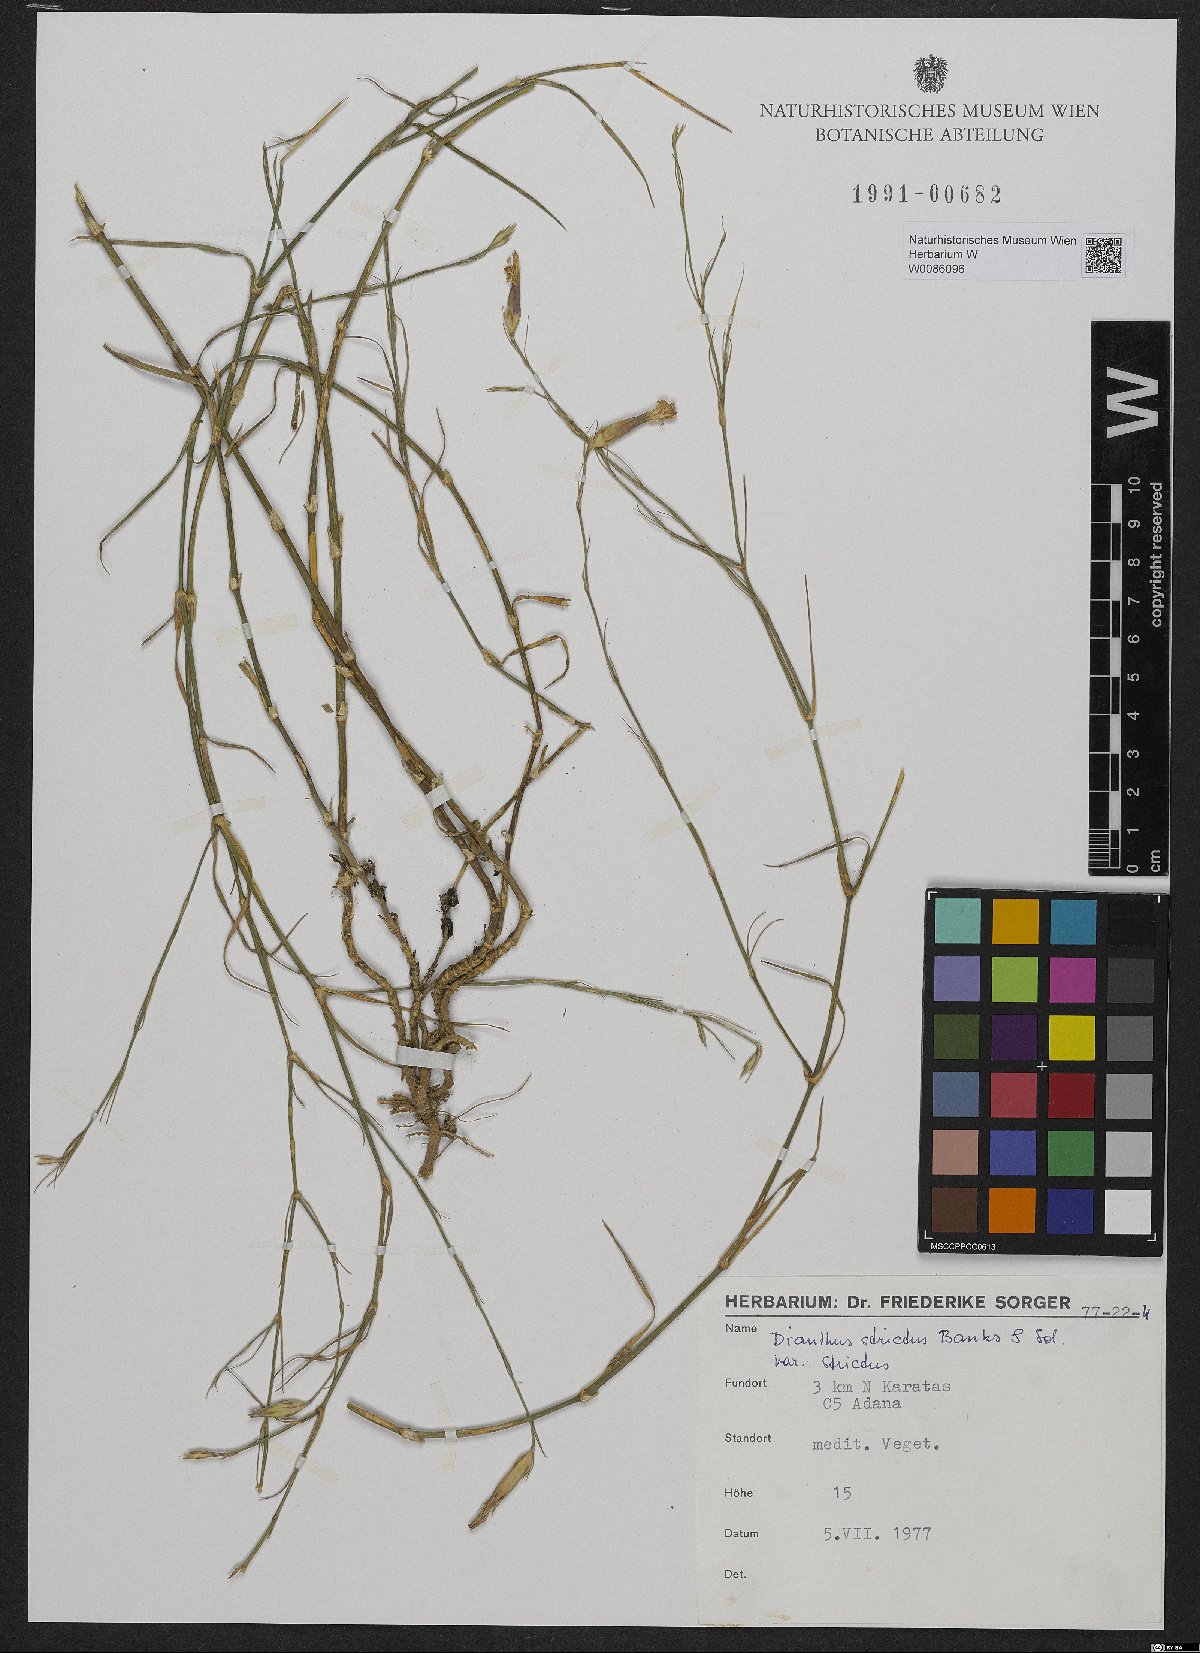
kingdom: Plantae
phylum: Tracheophyta
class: Magnoliopsida
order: Caryophyllales
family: Caryophyllaceae
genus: Dianthus
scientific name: Dianthus strictus
